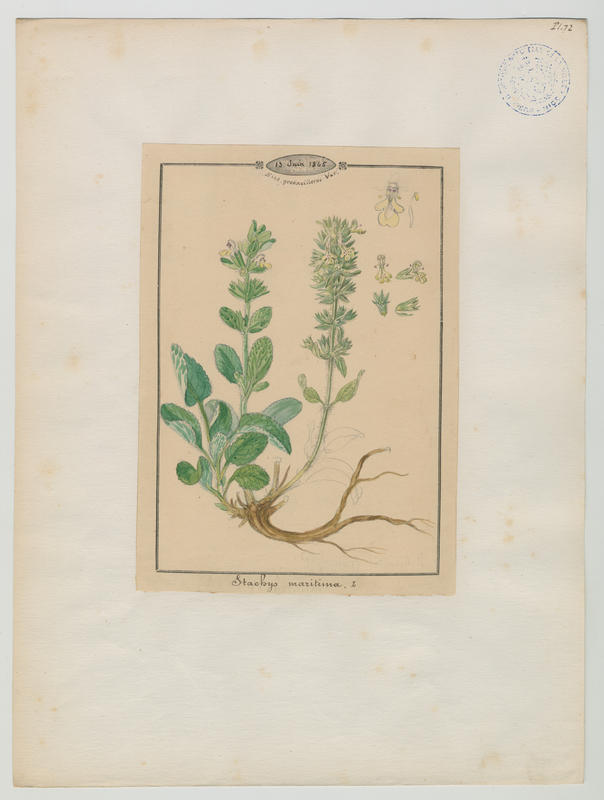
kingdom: Plantae
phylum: Tracheophyta
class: Magnoliopsida
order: Lamiales
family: Lamiaceae
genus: Stachys
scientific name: Stachys maritima
